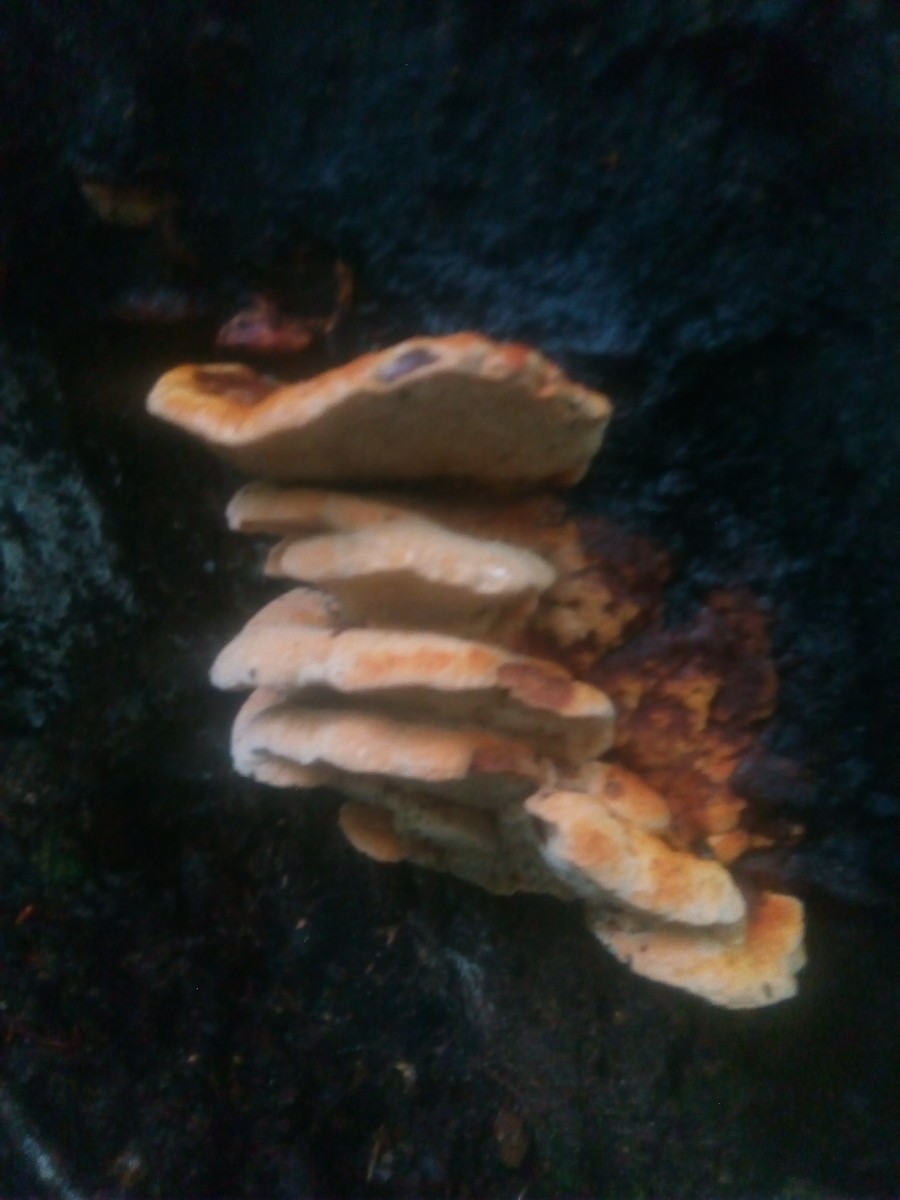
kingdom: Fungi
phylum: Basidiomycota
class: Agaricomycetes
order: Gloeophyllales
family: Gloeophyllaceae
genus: Gloeophyllum
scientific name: Gloeophyllum odoratum
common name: duftende korkhat
